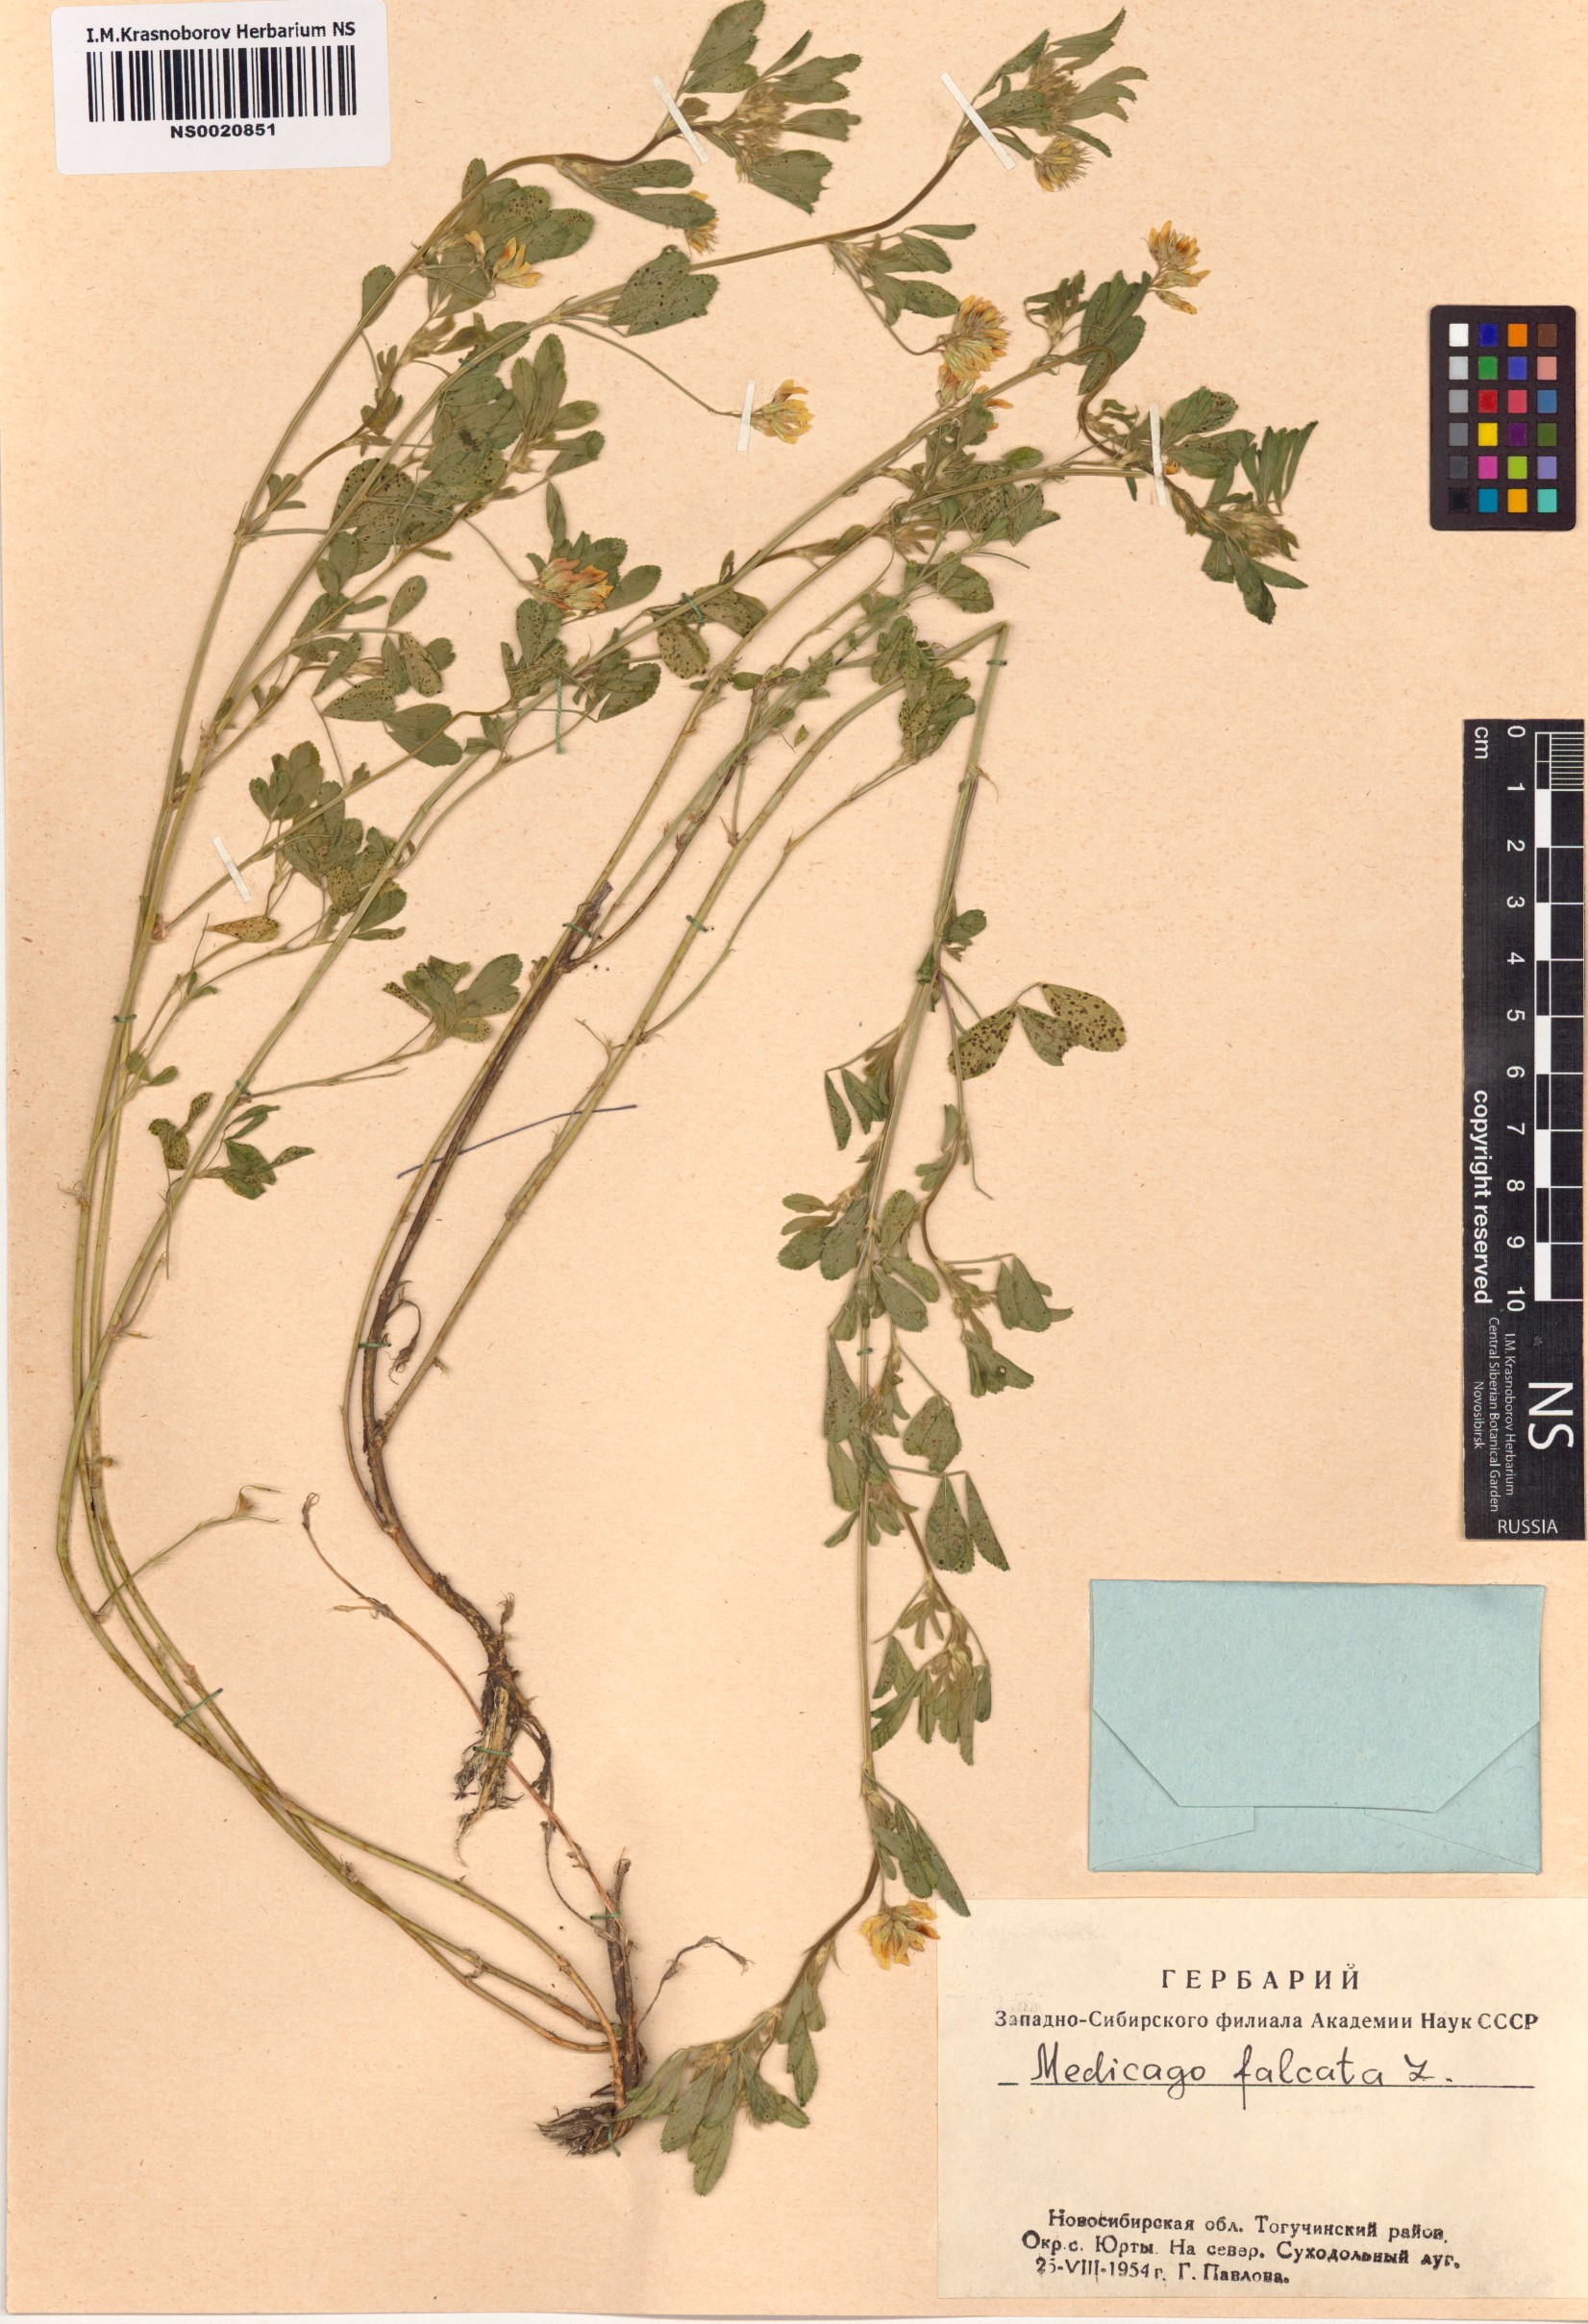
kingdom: Plantae
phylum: Tracheophyta
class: Magnoliopsida
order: Fabales
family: Fabaceae
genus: Medicago
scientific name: Medicago falcata
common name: Sickle medick
